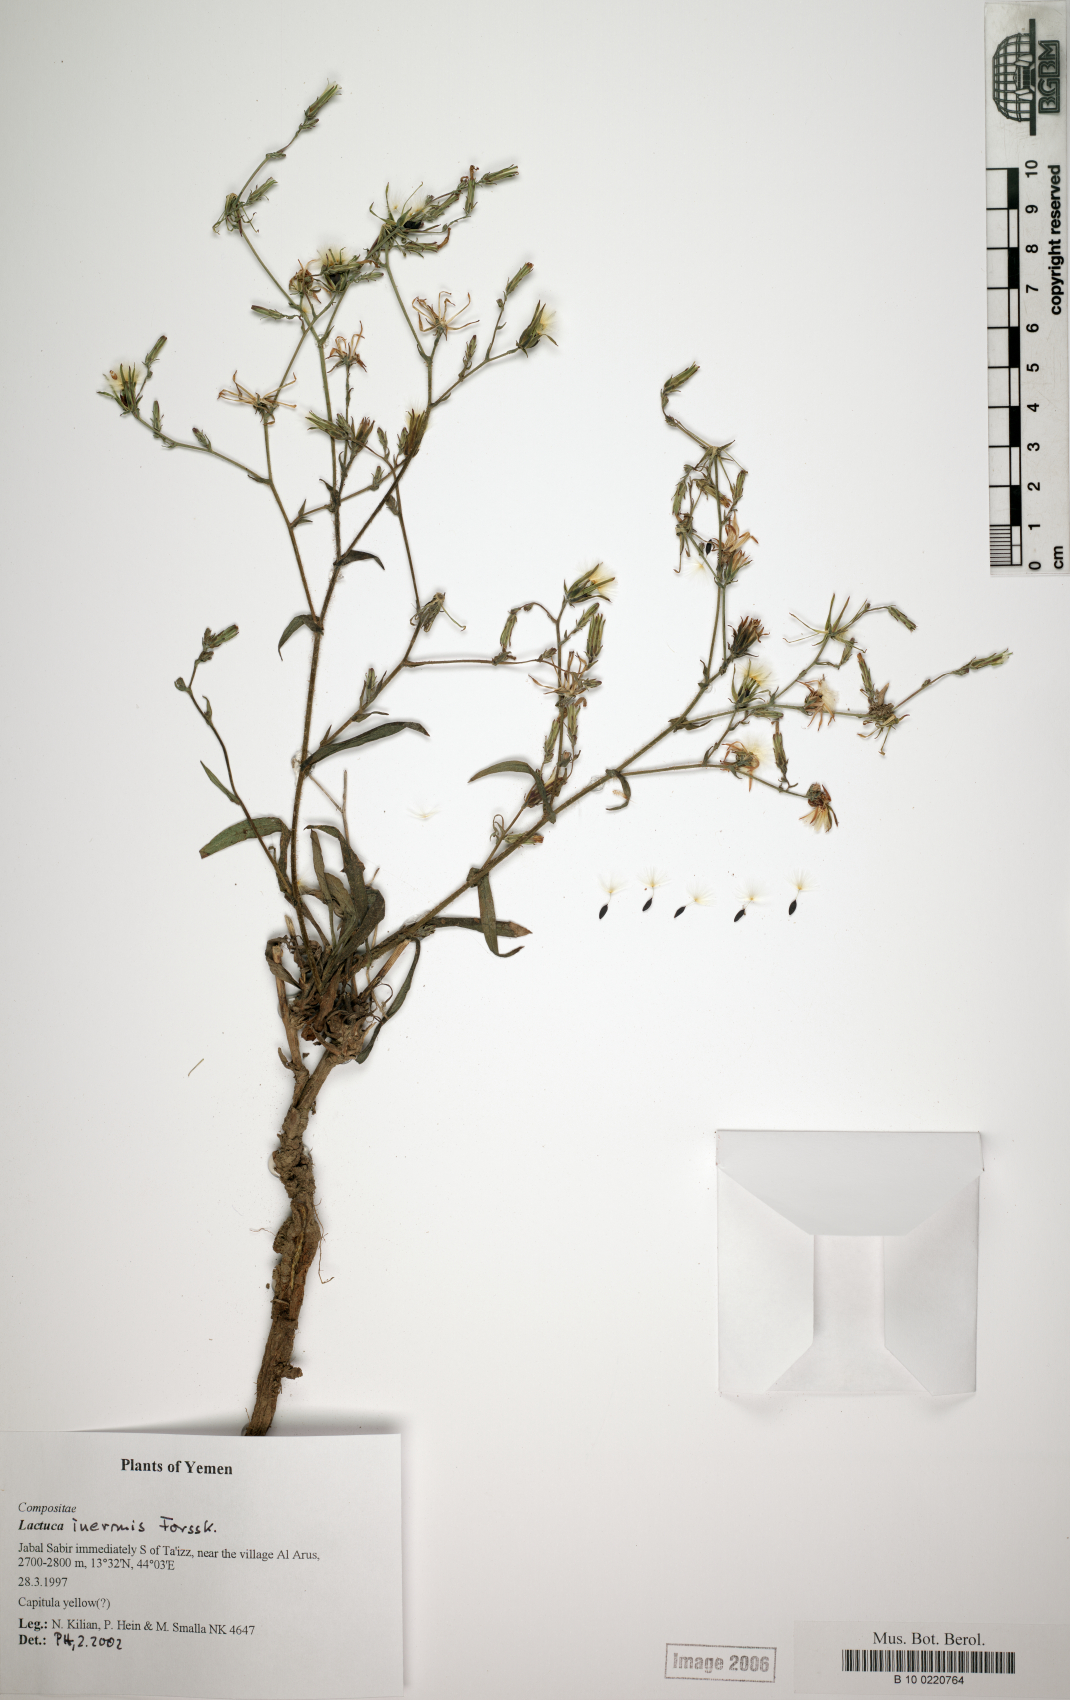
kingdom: Plantae
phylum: Tracheophyta
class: Magnoliopsida
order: Asterales
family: Asteraceae
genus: Lactuca
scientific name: Lactuca inermis
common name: Wild lettuce
